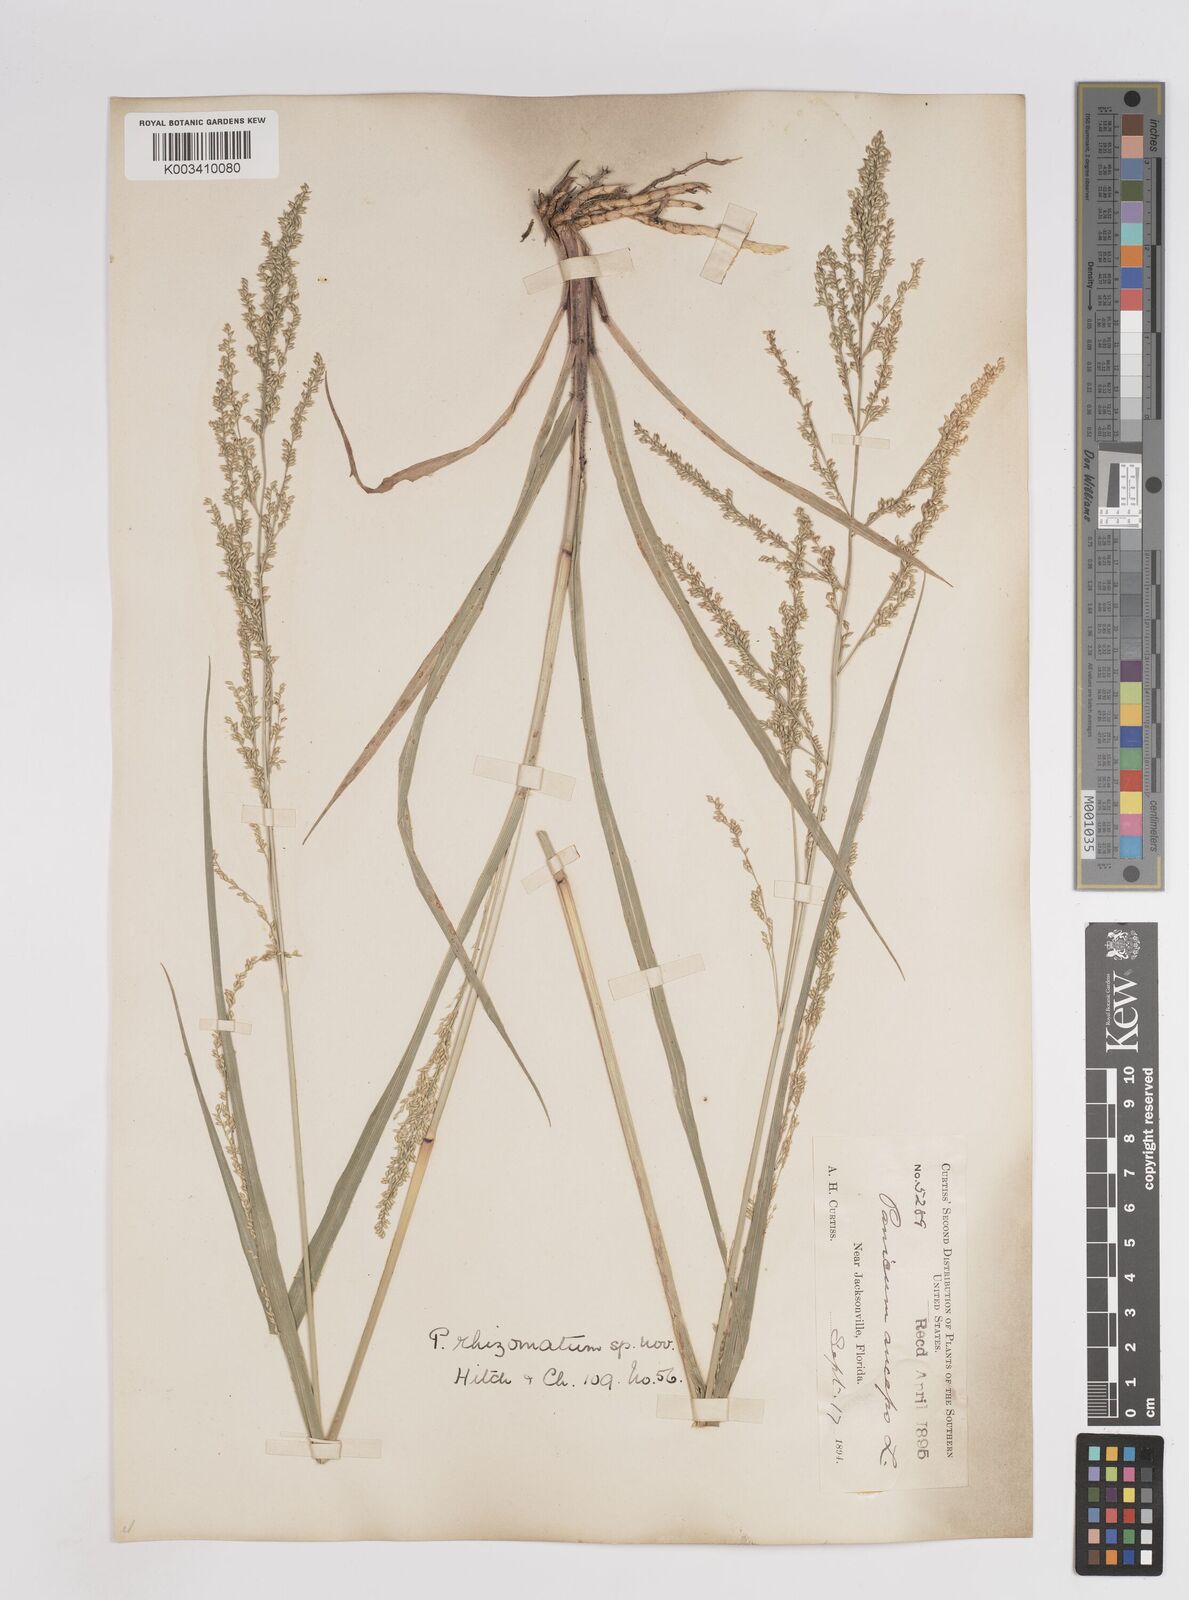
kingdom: Plantae
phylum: Tracheophyta
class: Liliopsida
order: Poales
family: Poaceae
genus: Coleataenia
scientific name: Coleataenia anceps
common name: Beaked panic grass
